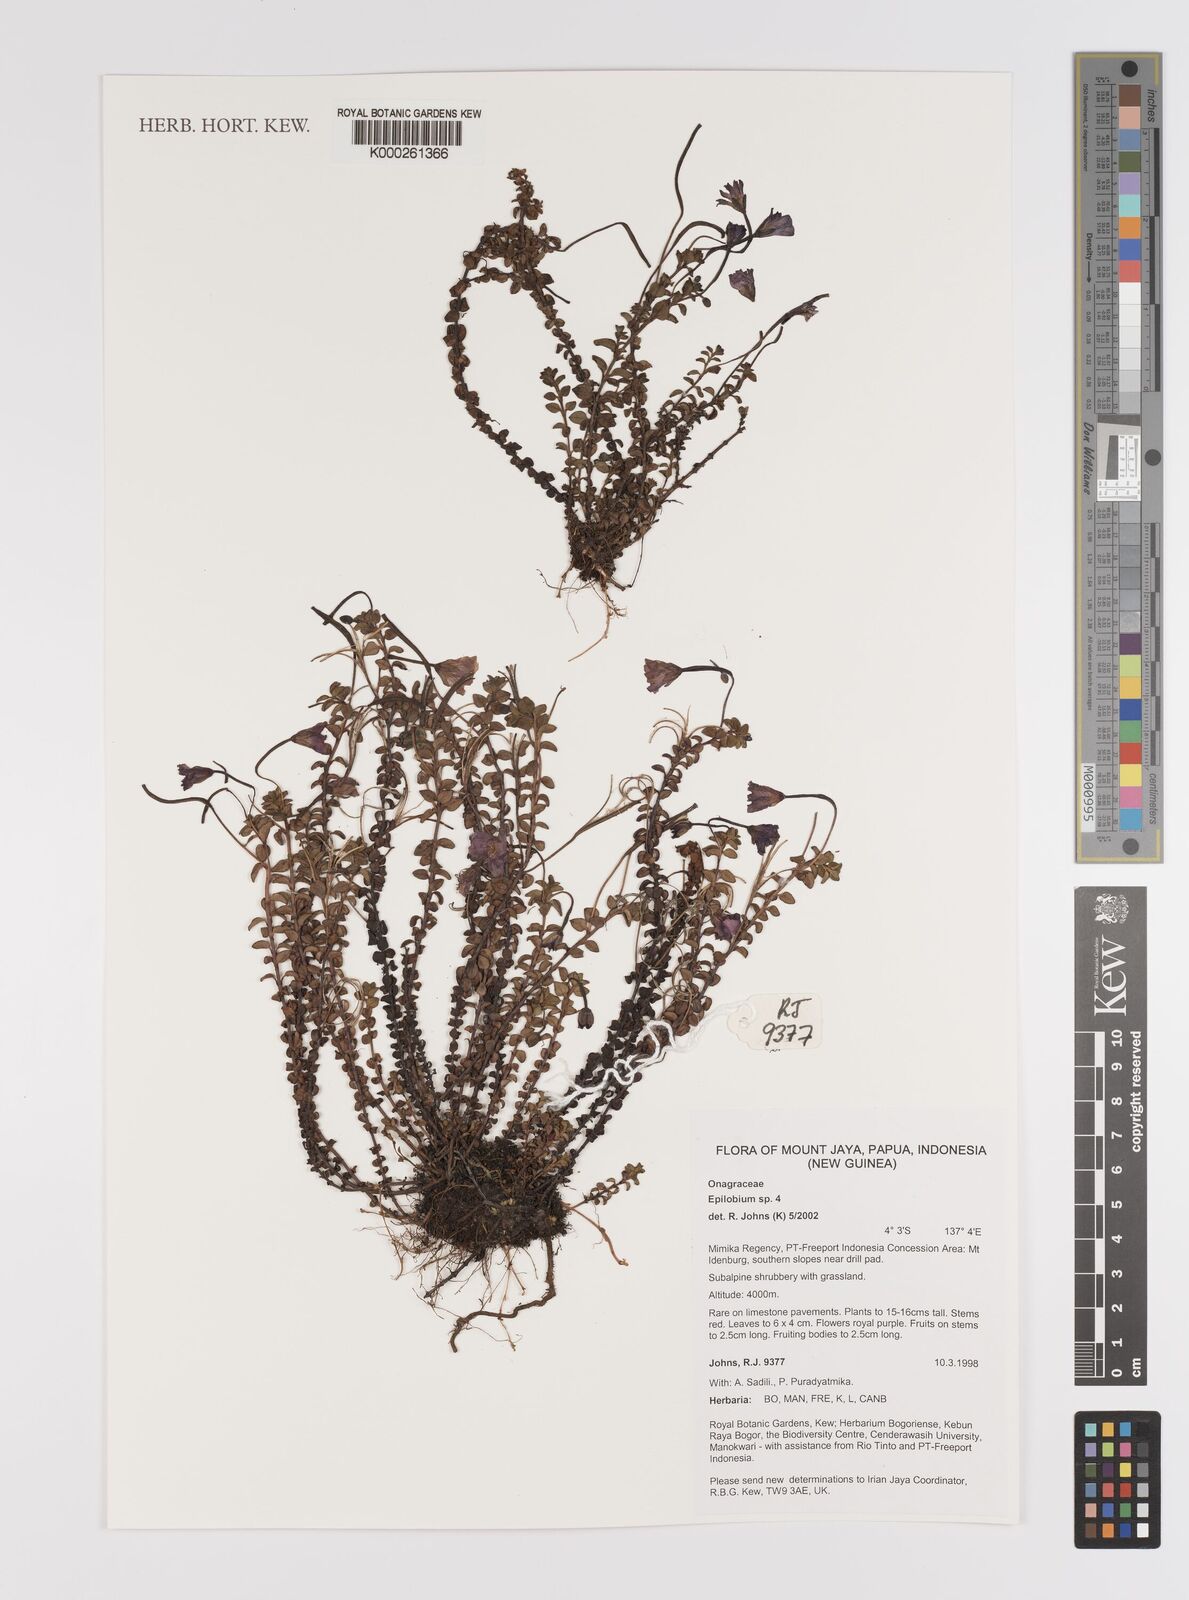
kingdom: Plantae
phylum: Tracheophyta
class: Magnoliopsida
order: Myrtales
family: Onagraceae
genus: Epilobium
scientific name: Epilobium
